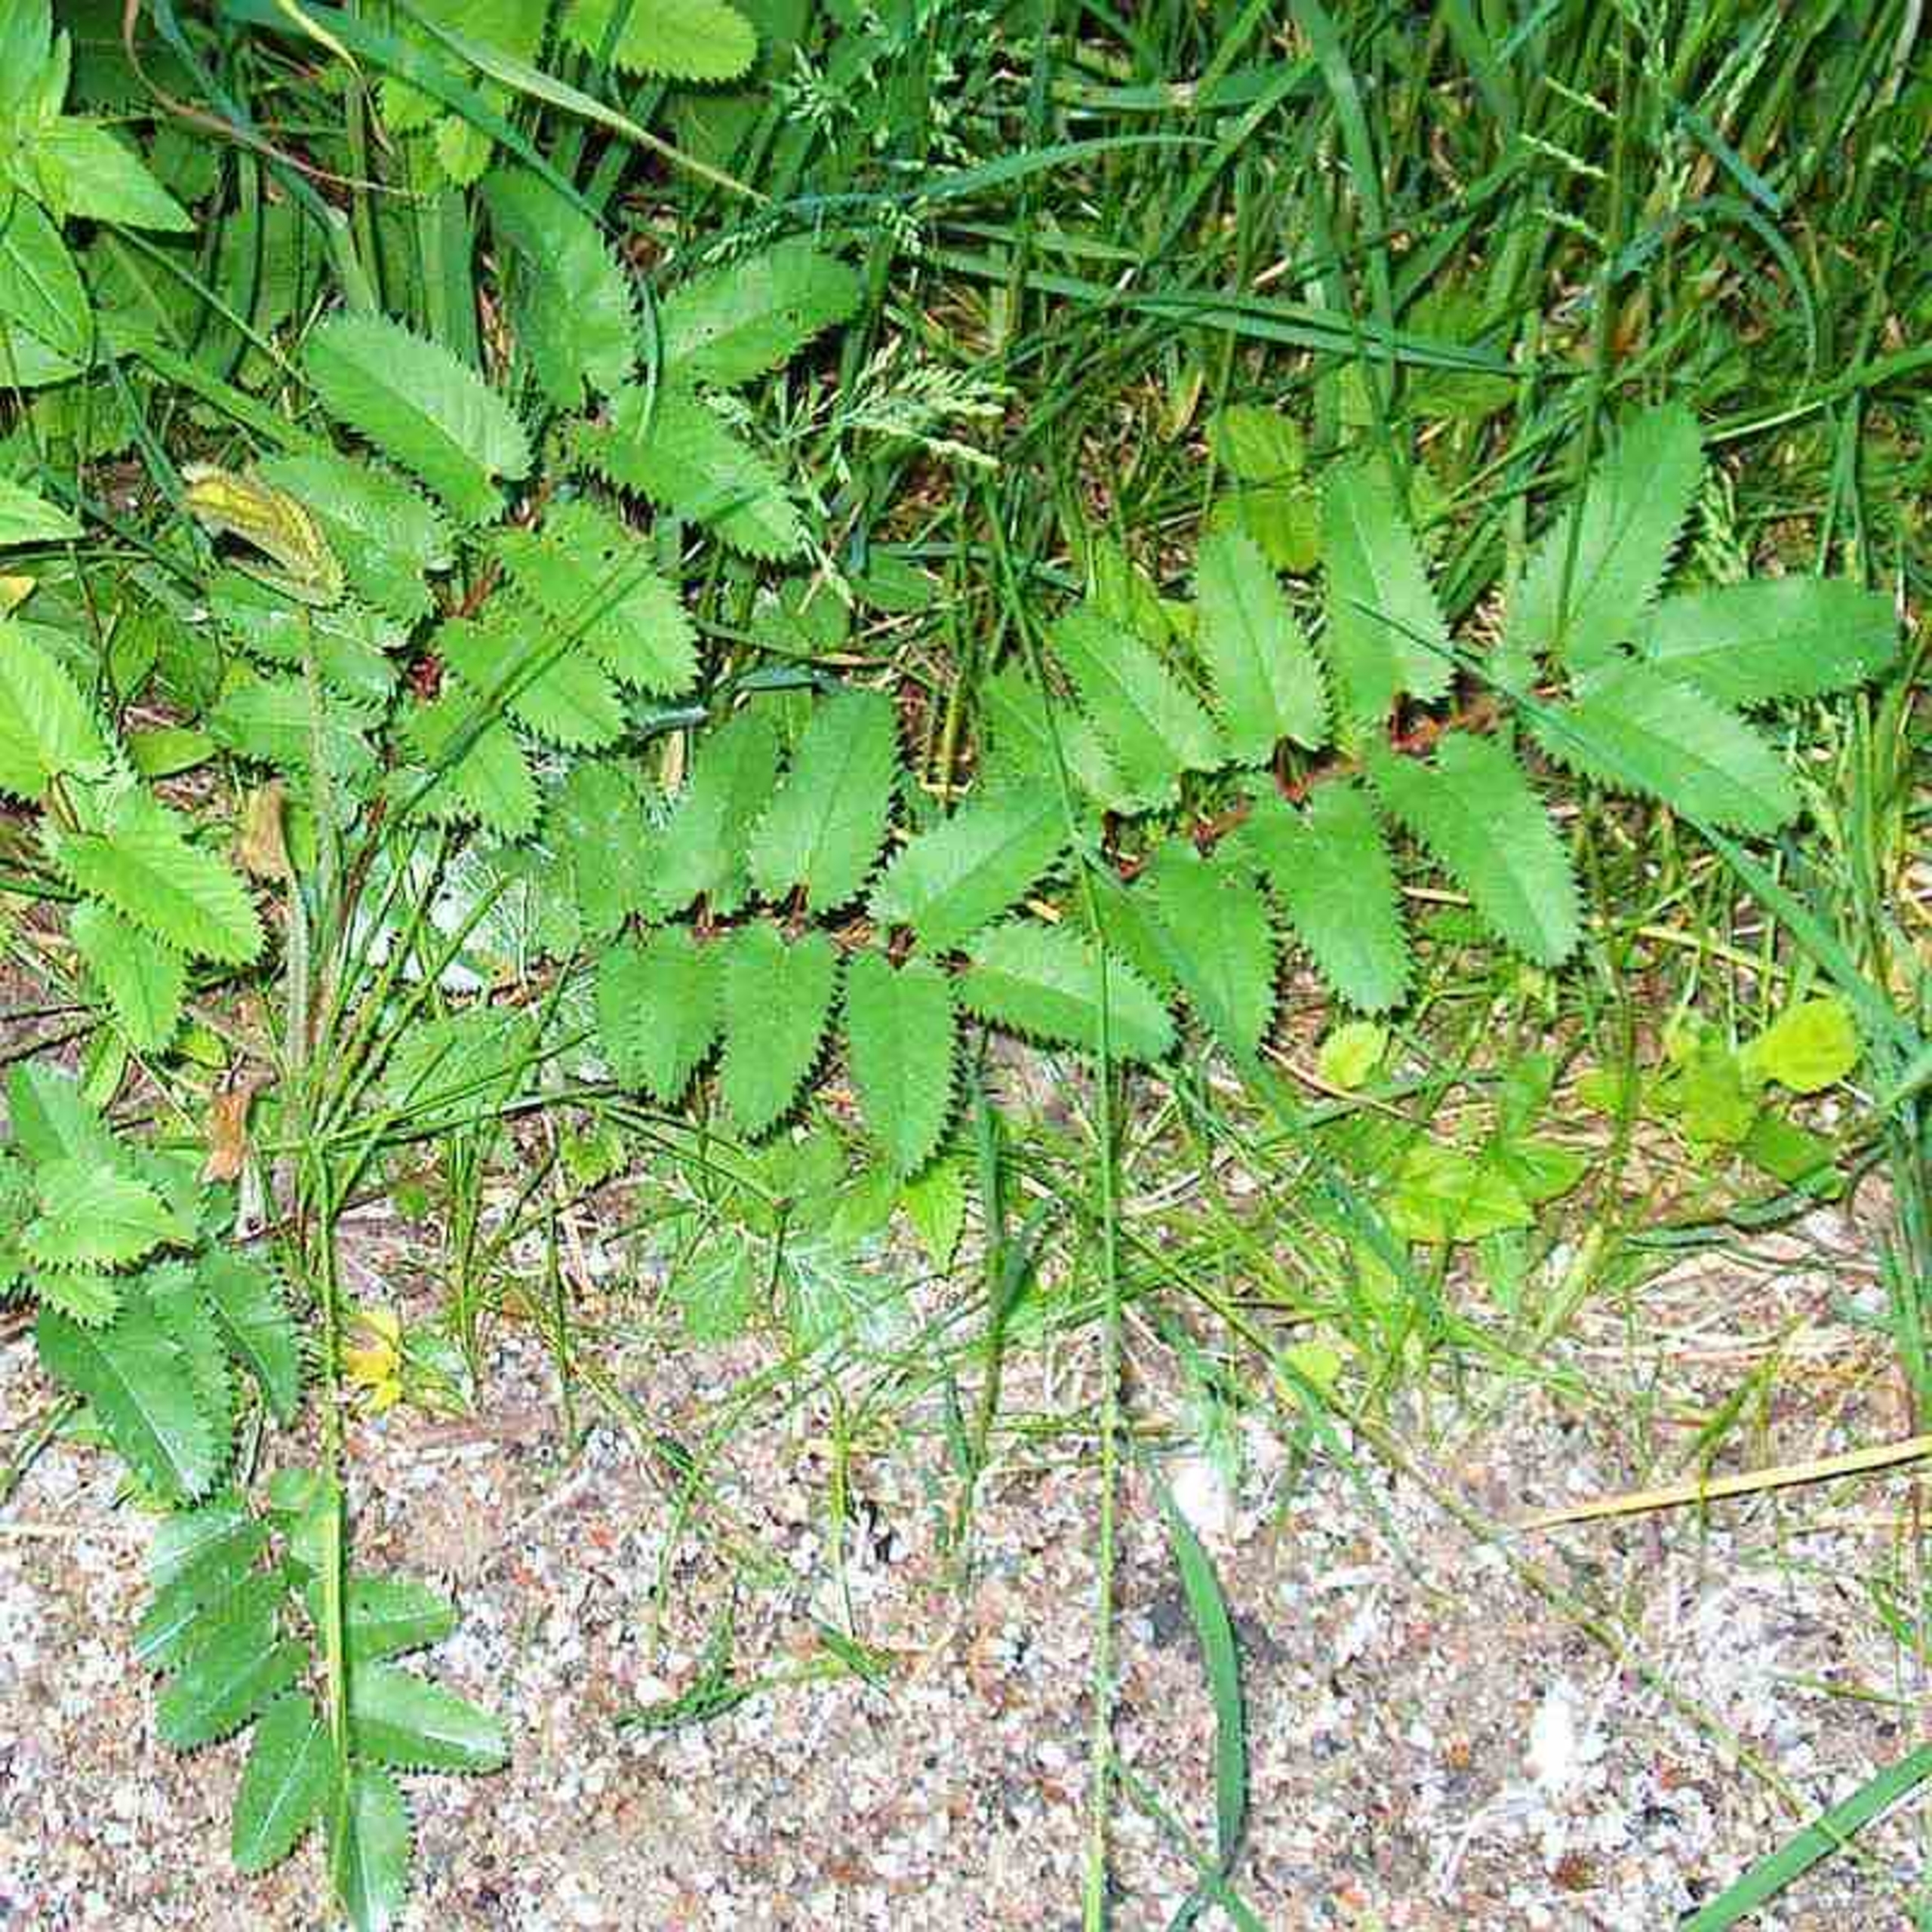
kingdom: Plantae
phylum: Tracheophyta
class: Magnoliopsida
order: Rosales
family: Rosaceae
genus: Sanguisorba
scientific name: Sanguisorba officinalis
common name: Læge-kvæsurt
